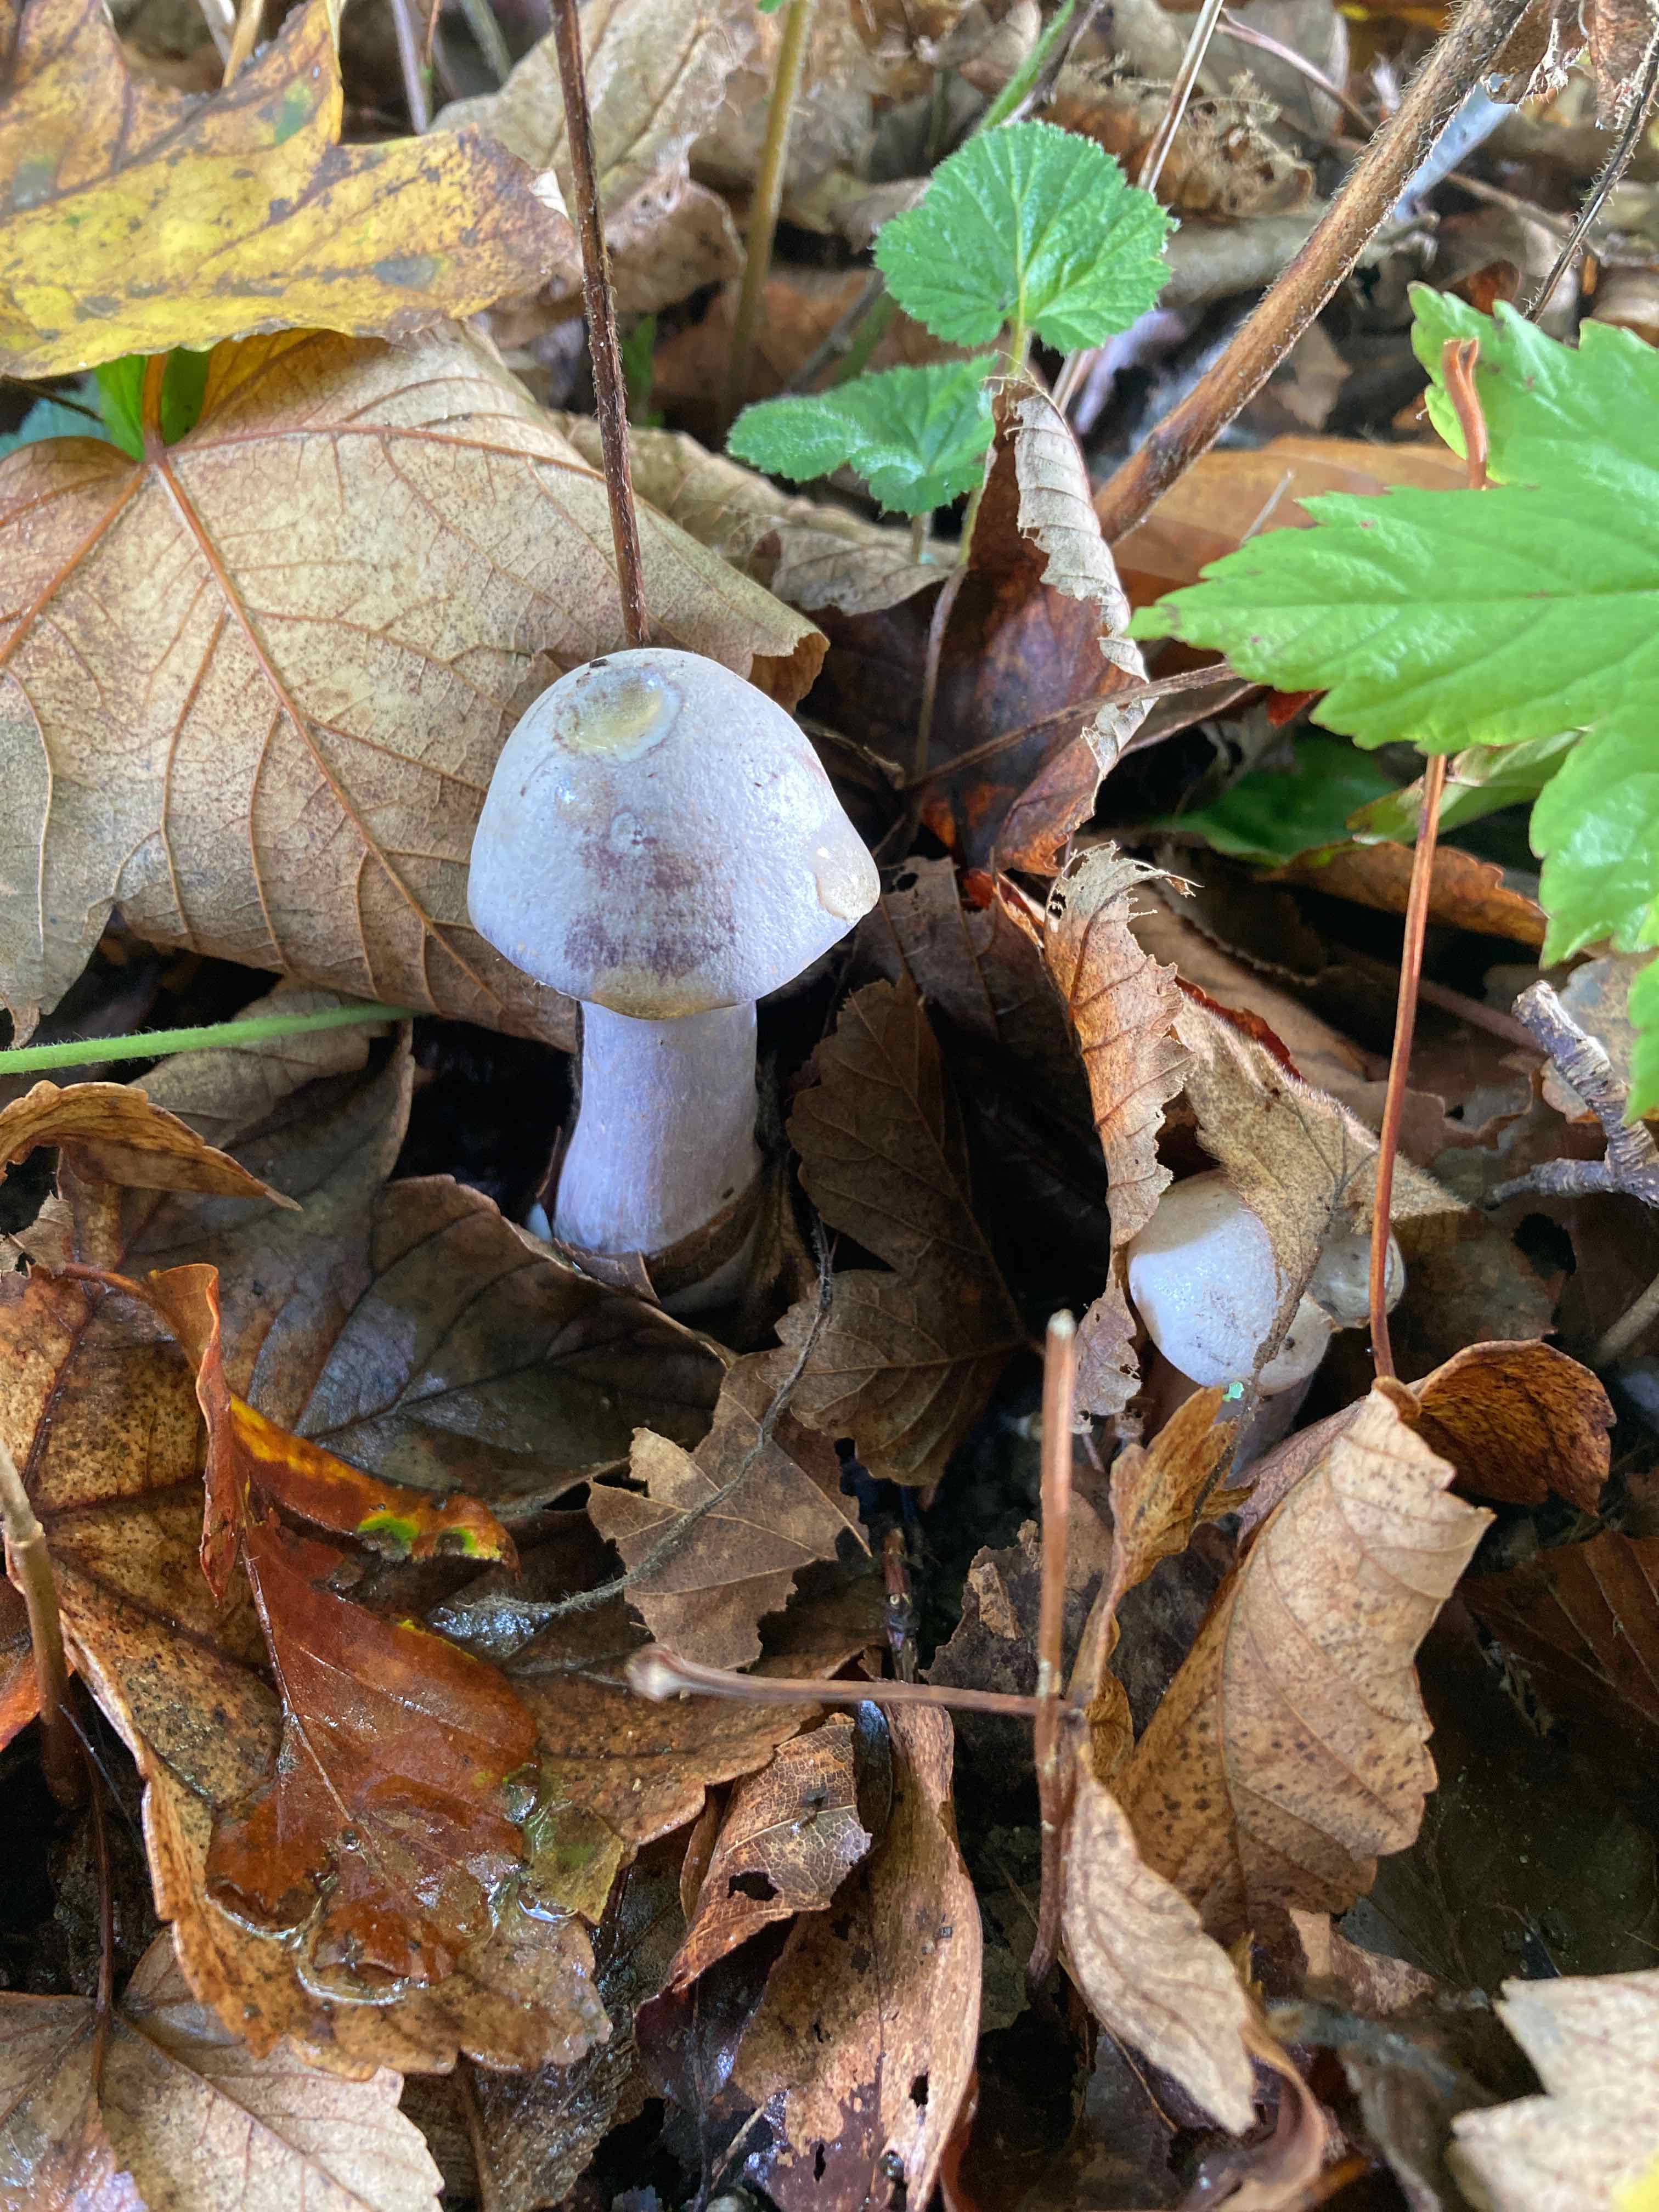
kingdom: Fungi
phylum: Basidiomycota
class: Agaricomycetes
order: Agaricales
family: Cortinariaceae
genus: Cortinarius
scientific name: Cortinarius alboviolaceus
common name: lysviolet slørhat
